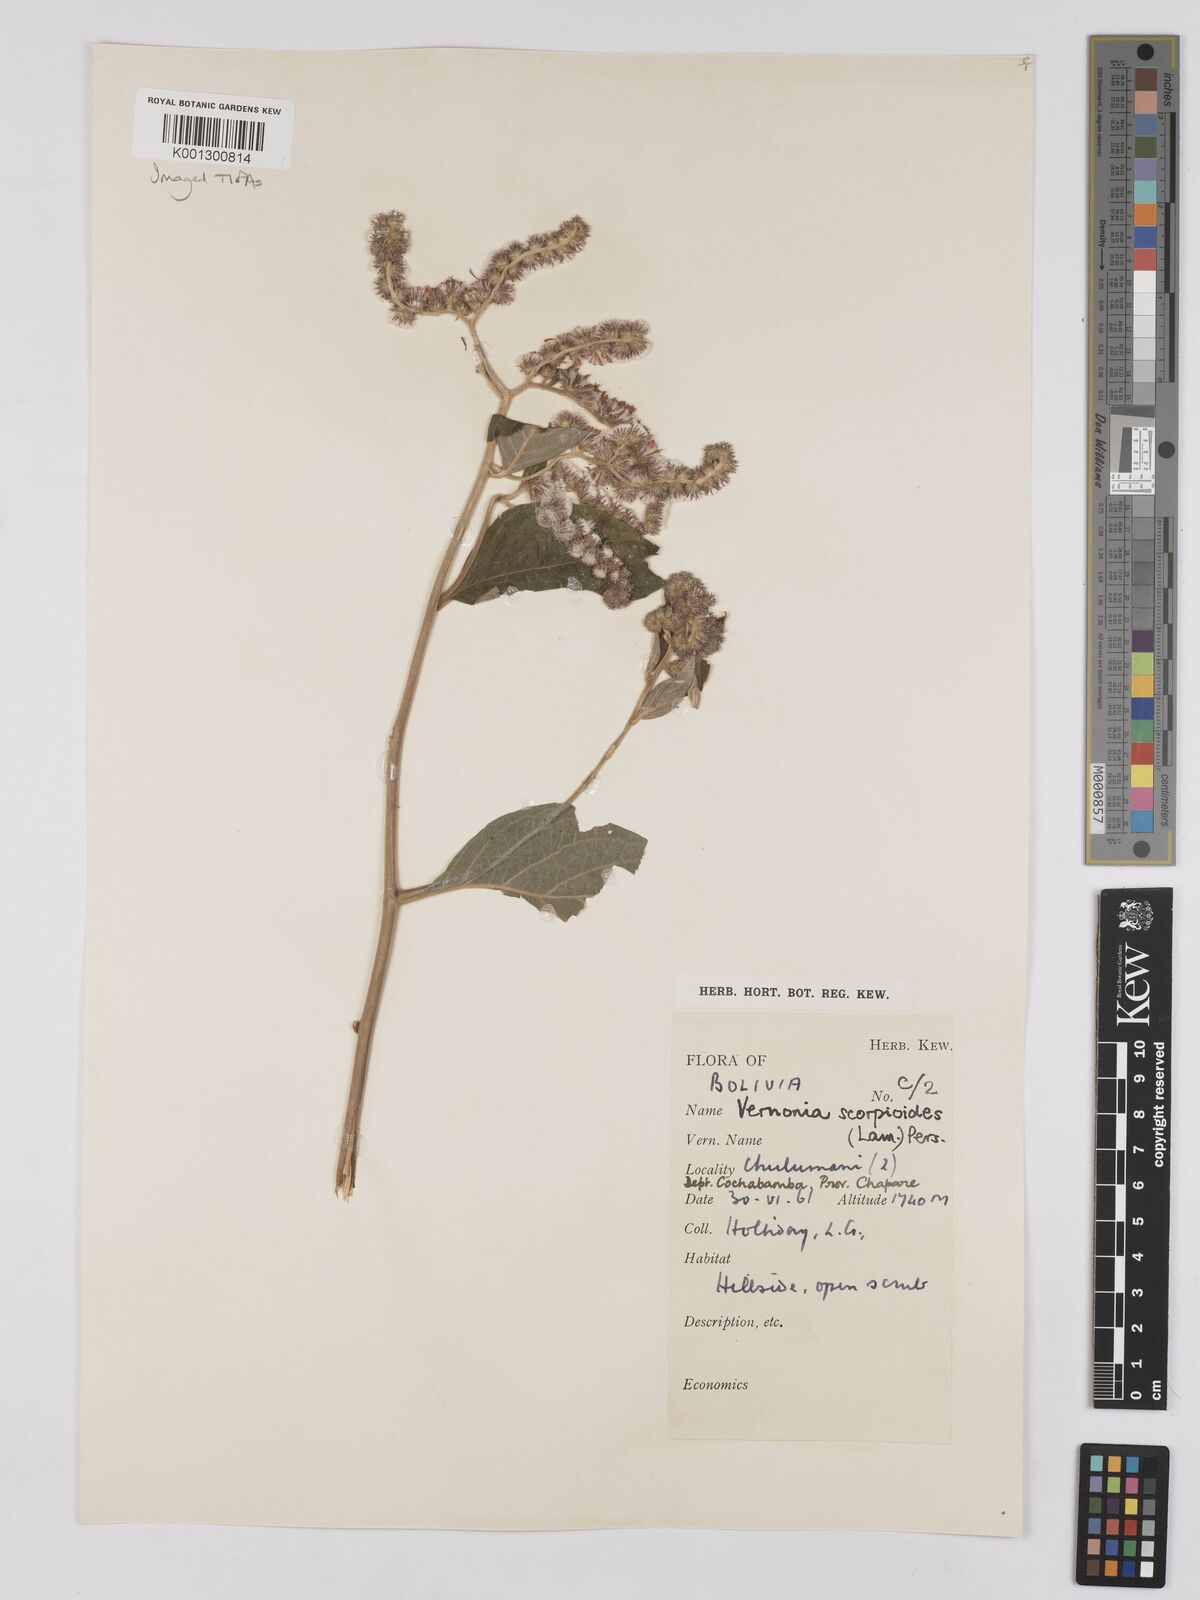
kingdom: Plantae
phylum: Tracheophyta
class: Magnoliopsida
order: Asterales
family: Asteraceae
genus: Cyrtocymura
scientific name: Cyrtocymura scorpioides
